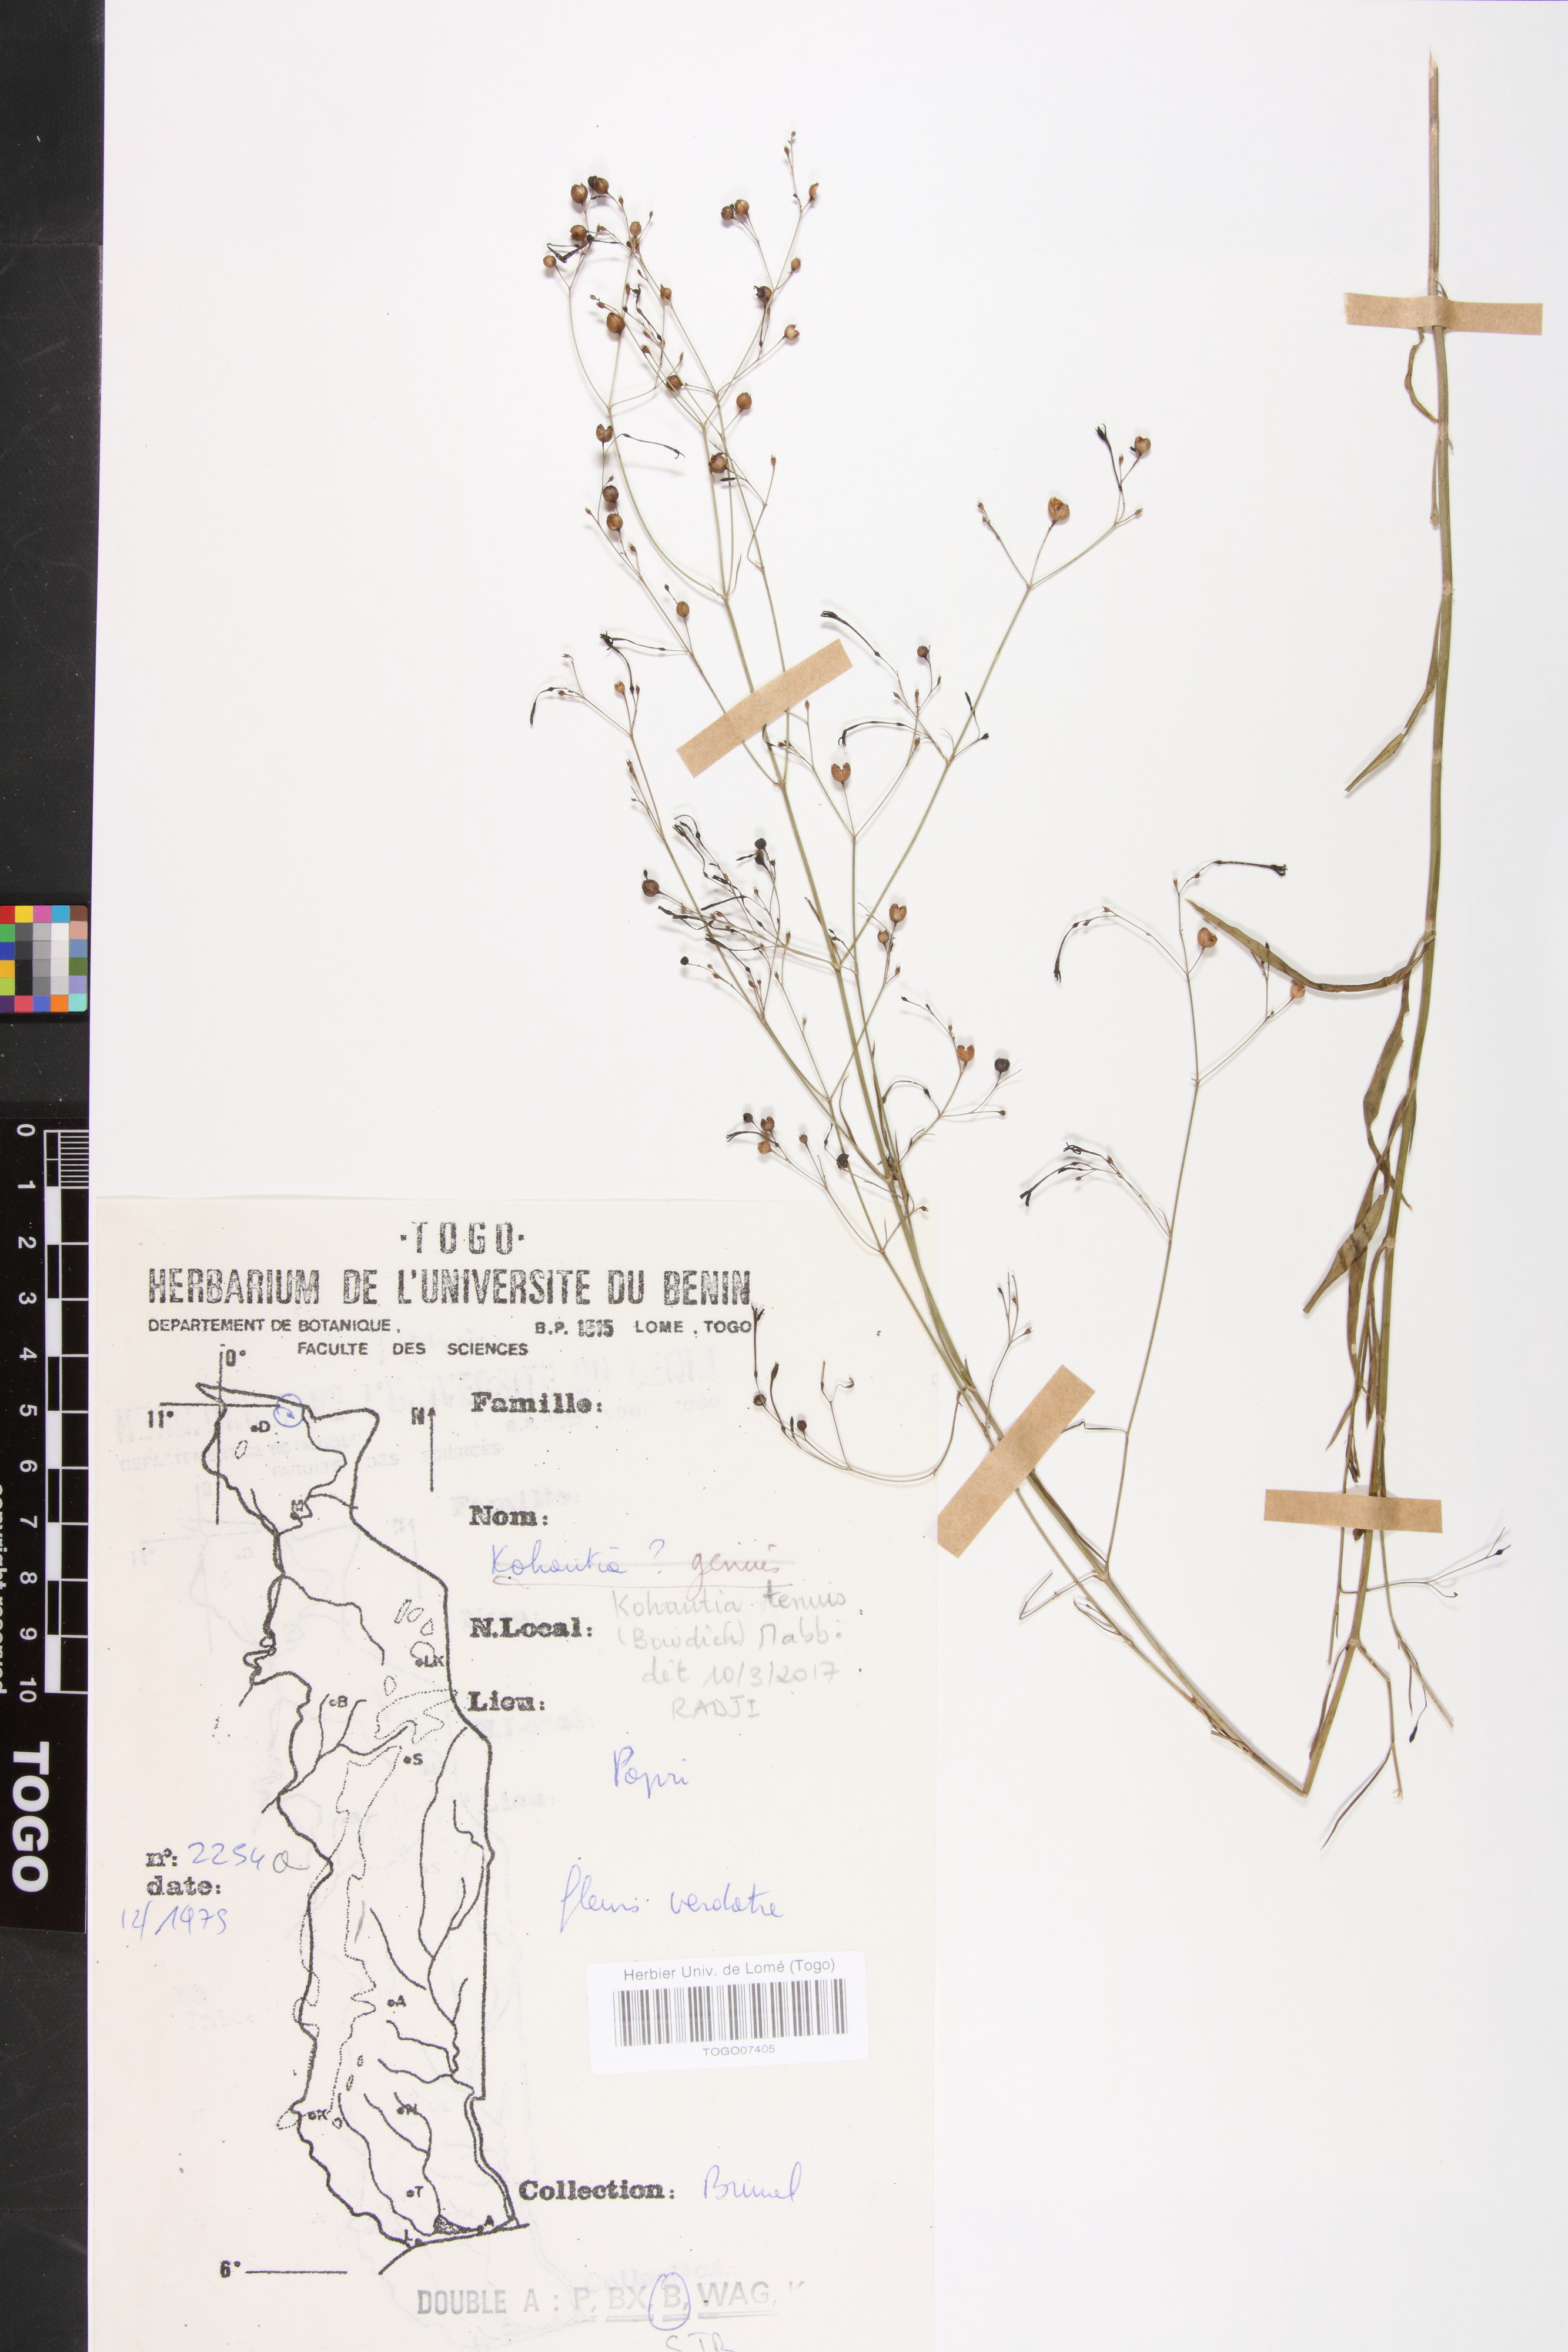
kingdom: Plantae
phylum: Tracheophyta
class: Magnoliopsida
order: Gentianales
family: Rubiaceae
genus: Kohautia
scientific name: Kohautia
